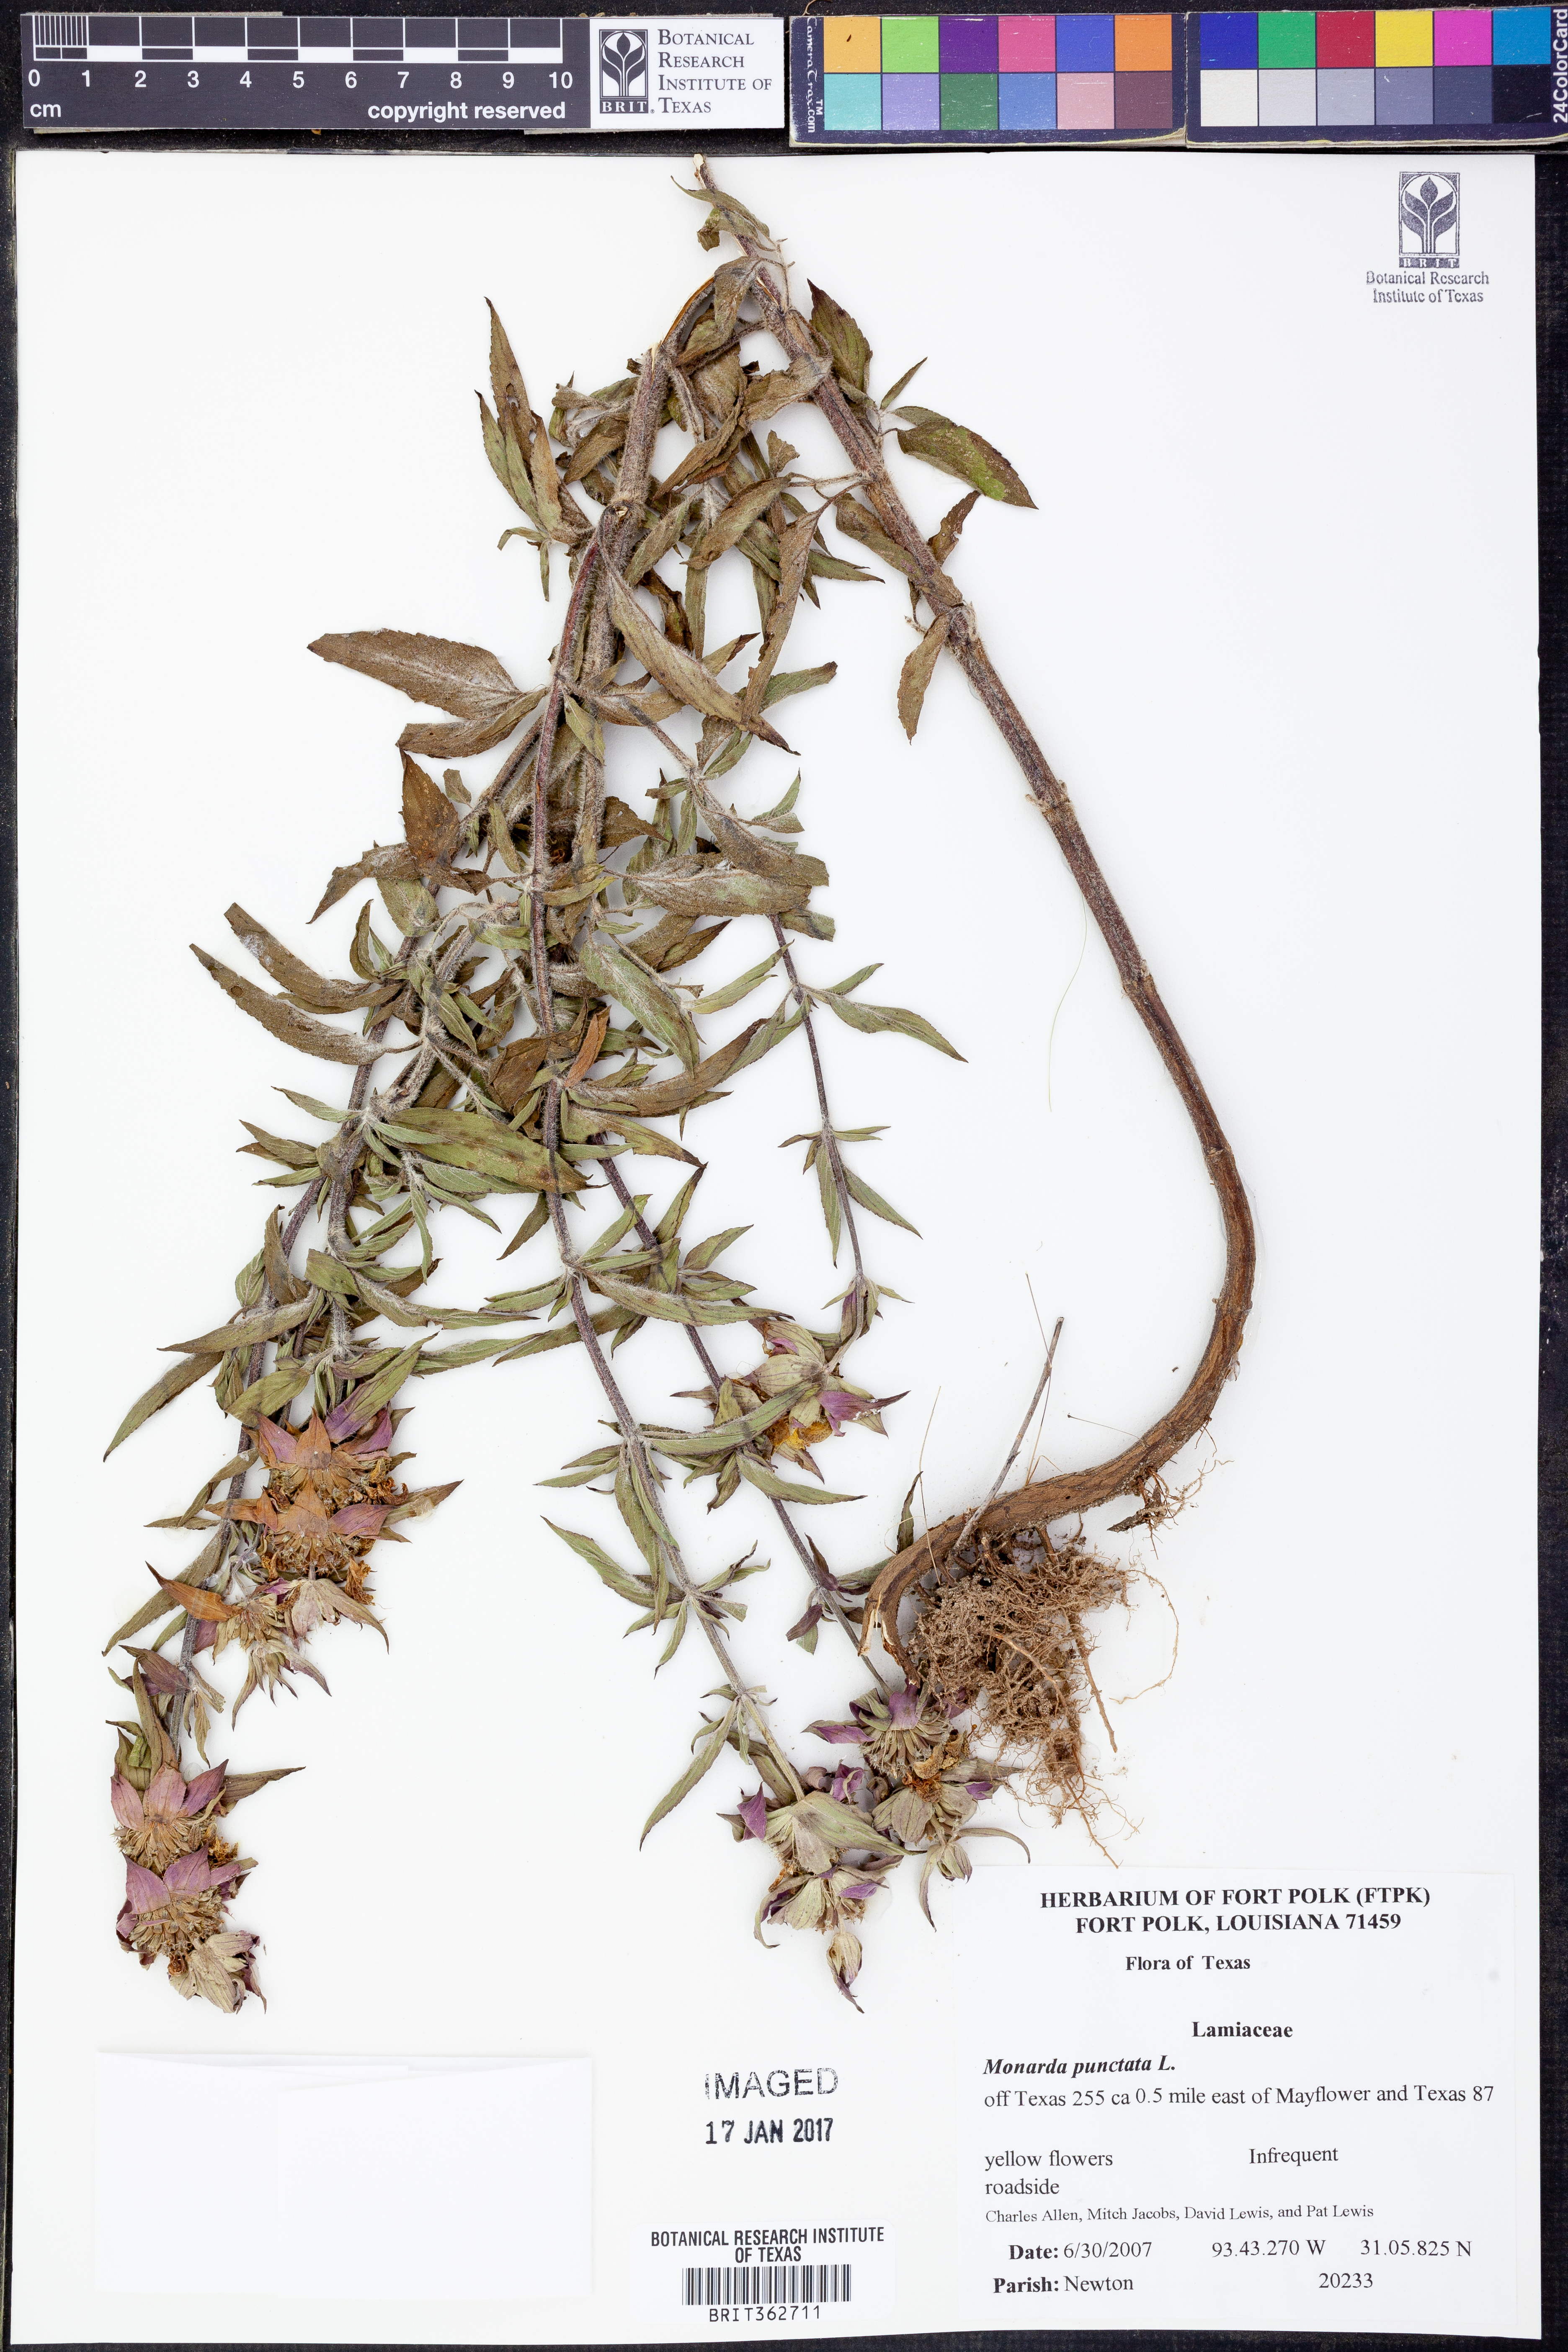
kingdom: Plantae
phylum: Tracheophyta
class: Magnoliopsida
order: Lamiales
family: Lamiaceae
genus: Monarda
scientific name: Monarda punctata
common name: Dotted monarda
